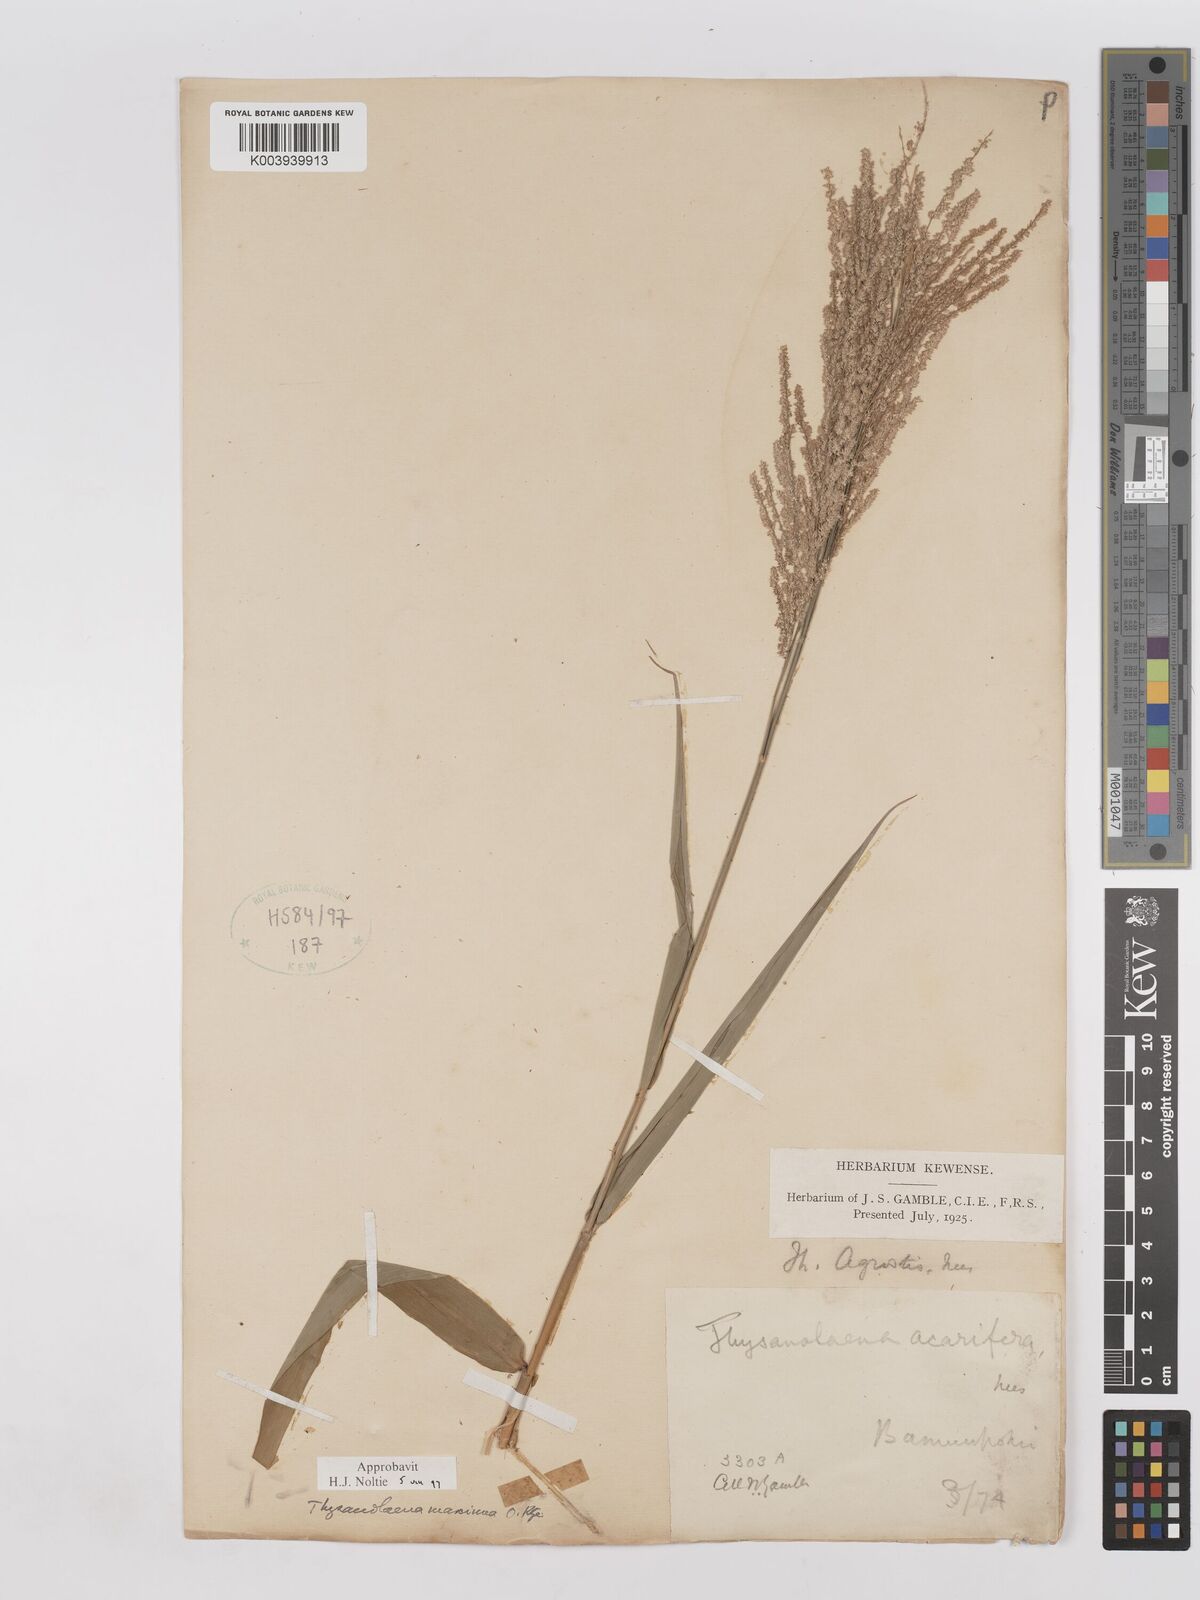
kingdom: Plantae
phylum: Tracheophyta
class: Liliopsida
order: Poales
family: Poaceae
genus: Thysanolaena
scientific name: Thysanolaena latifolia
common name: Tiger grass
